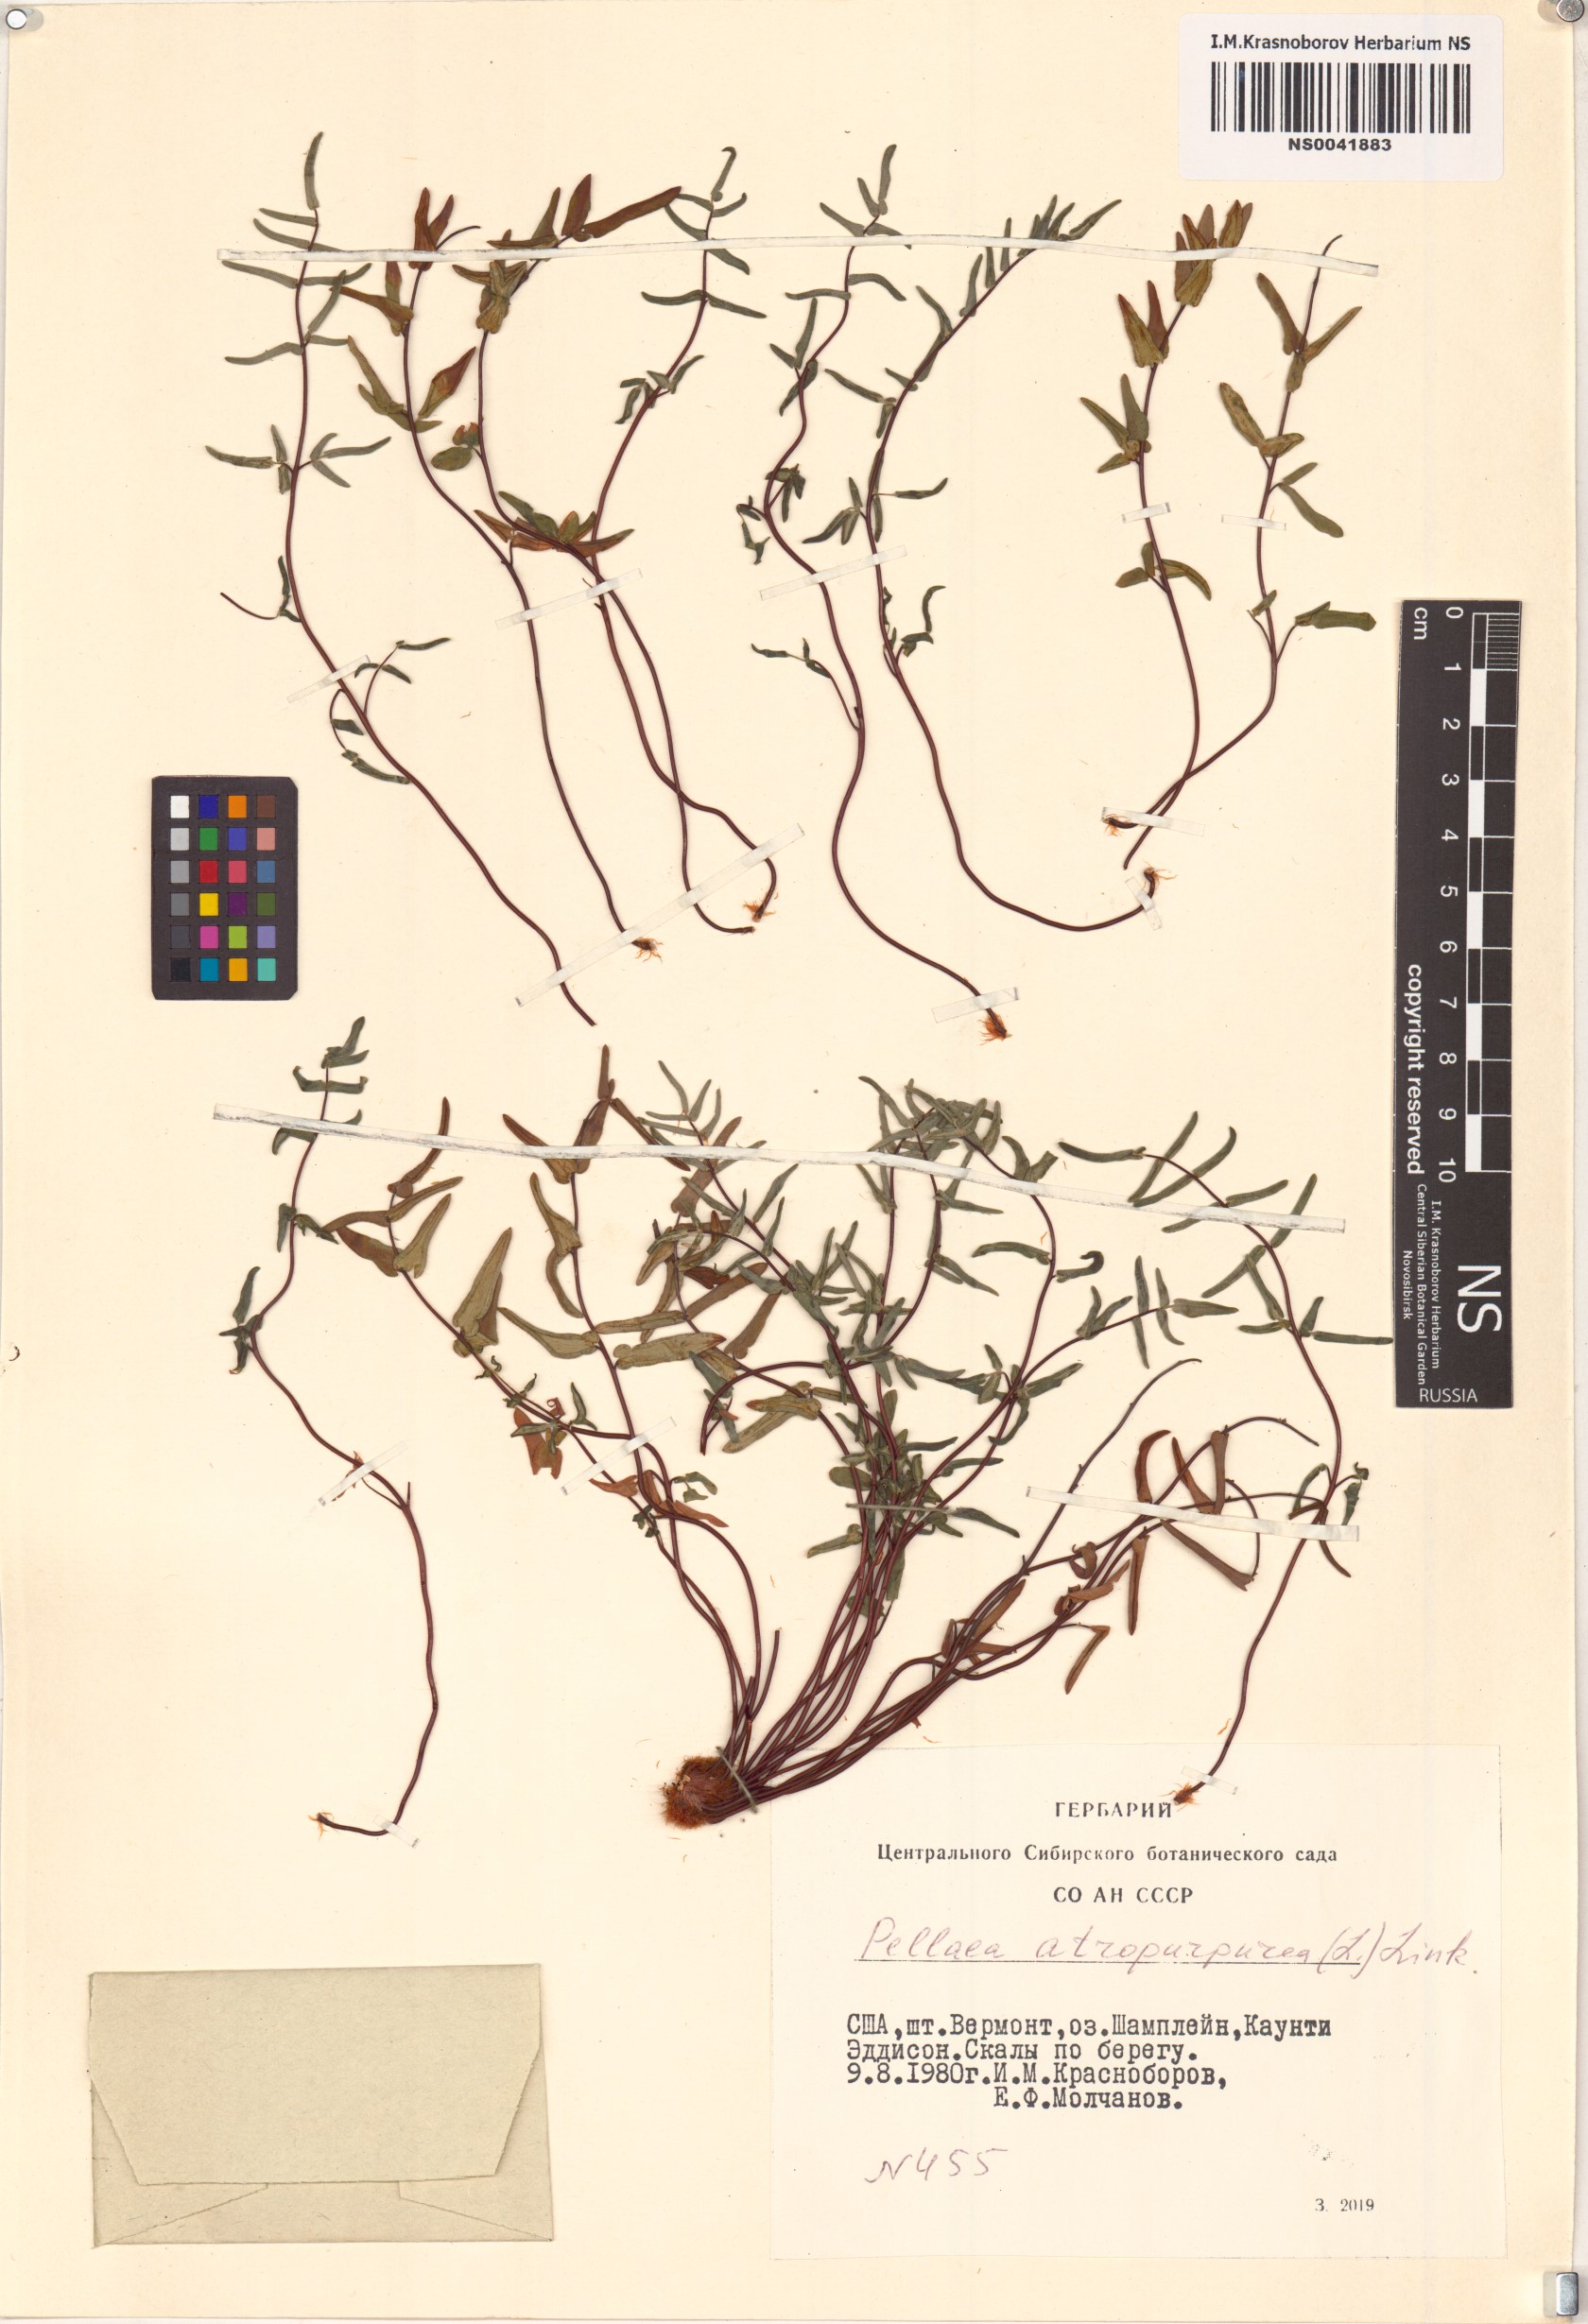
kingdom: Plantae
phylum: Tracheophyta
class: Polypodiopsida
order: Polypodiales
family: Pteridaceae
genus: Pellaea
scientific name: Pellaea atropurpurea
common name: Hairy cliffbrake
